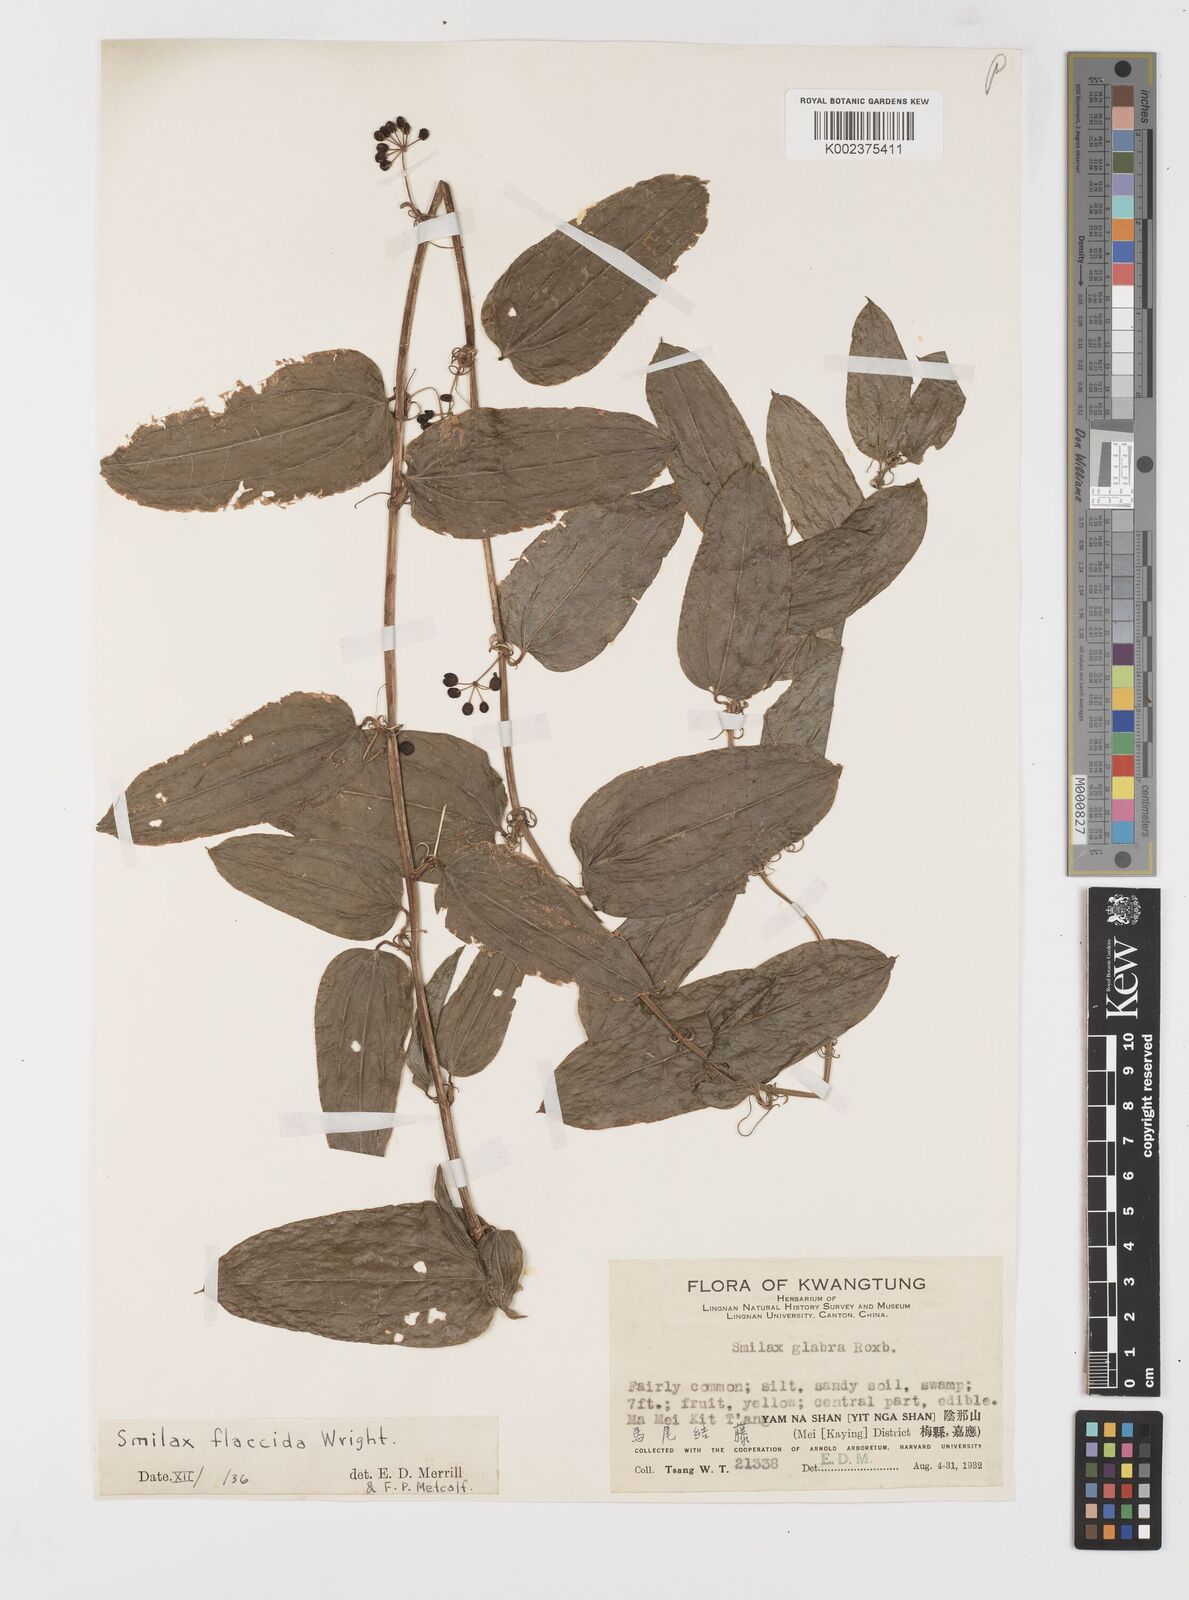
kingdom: Plantae
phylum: Tracheophyta
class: Liliopsida
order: Liliales
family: Smilacaceae
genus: Smilax
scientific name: Smilax riparia
